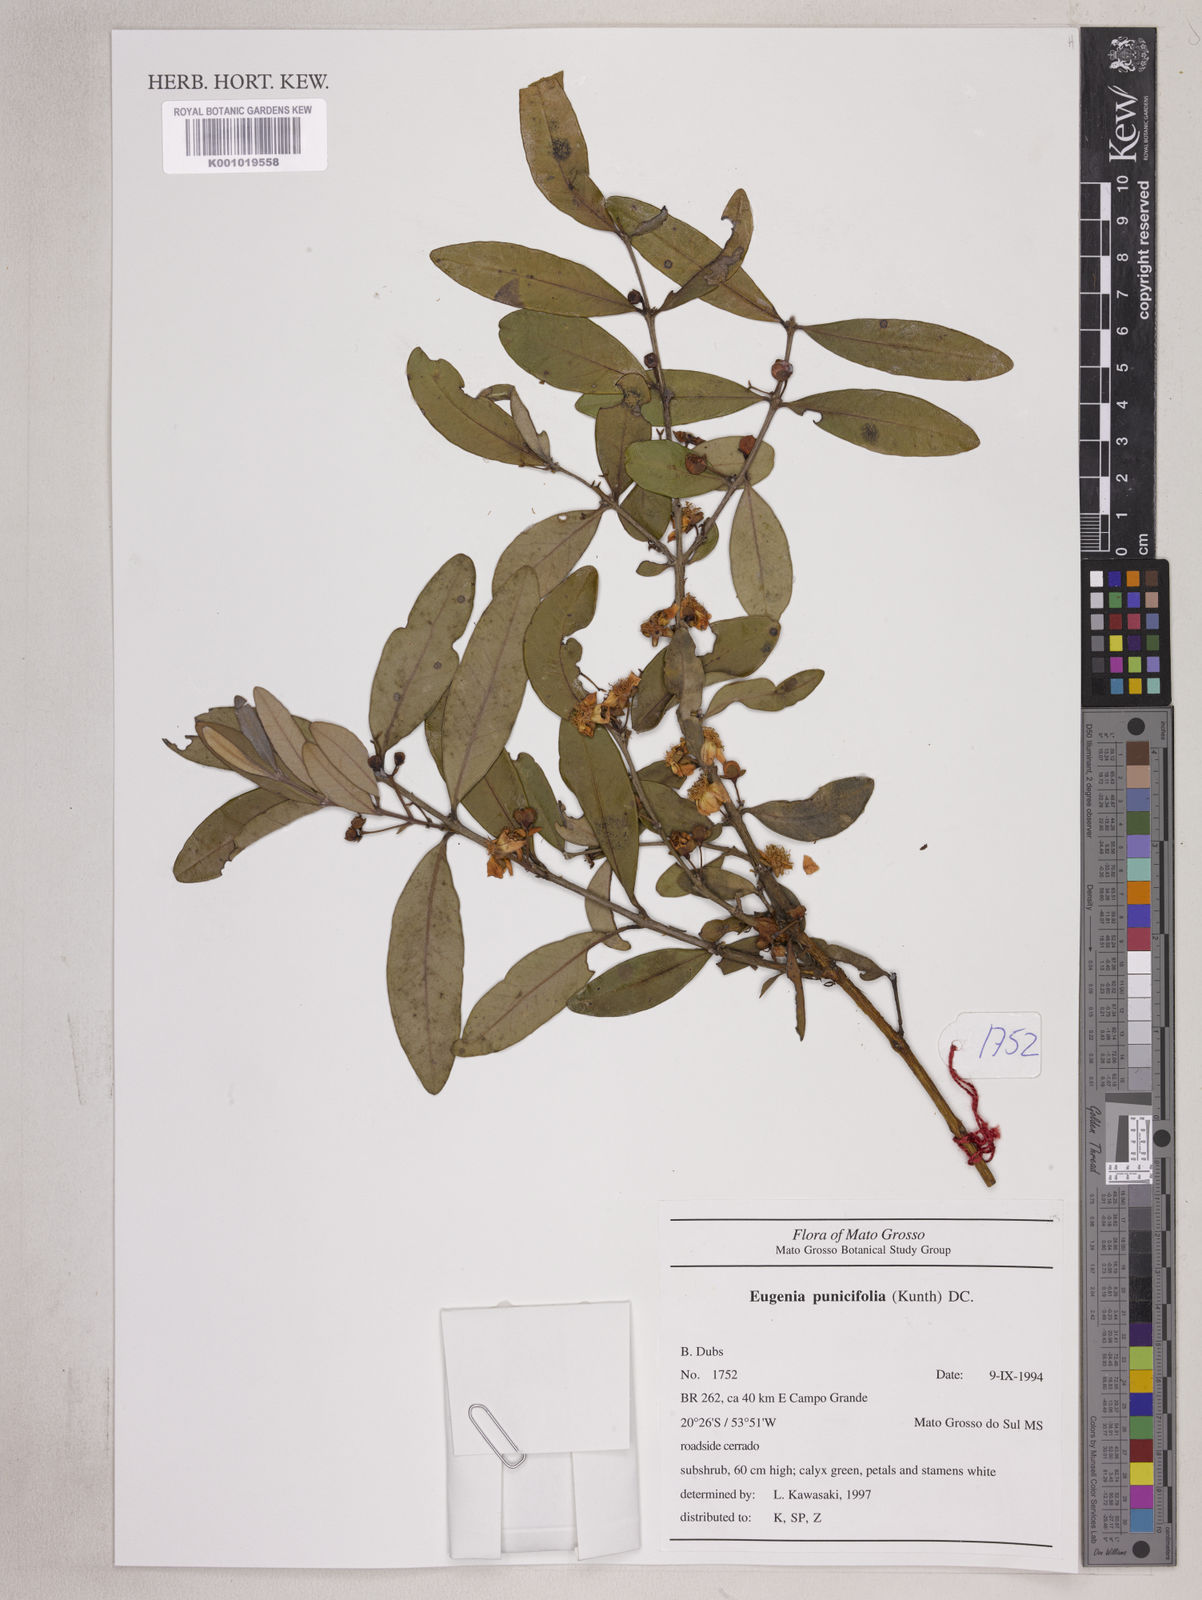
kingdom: Plantae
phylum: Tracheophyta
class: Magnoliopsida
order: Myrtales
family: Myrtaceae
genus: Eugenia
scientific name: Eugenia punicifolia
